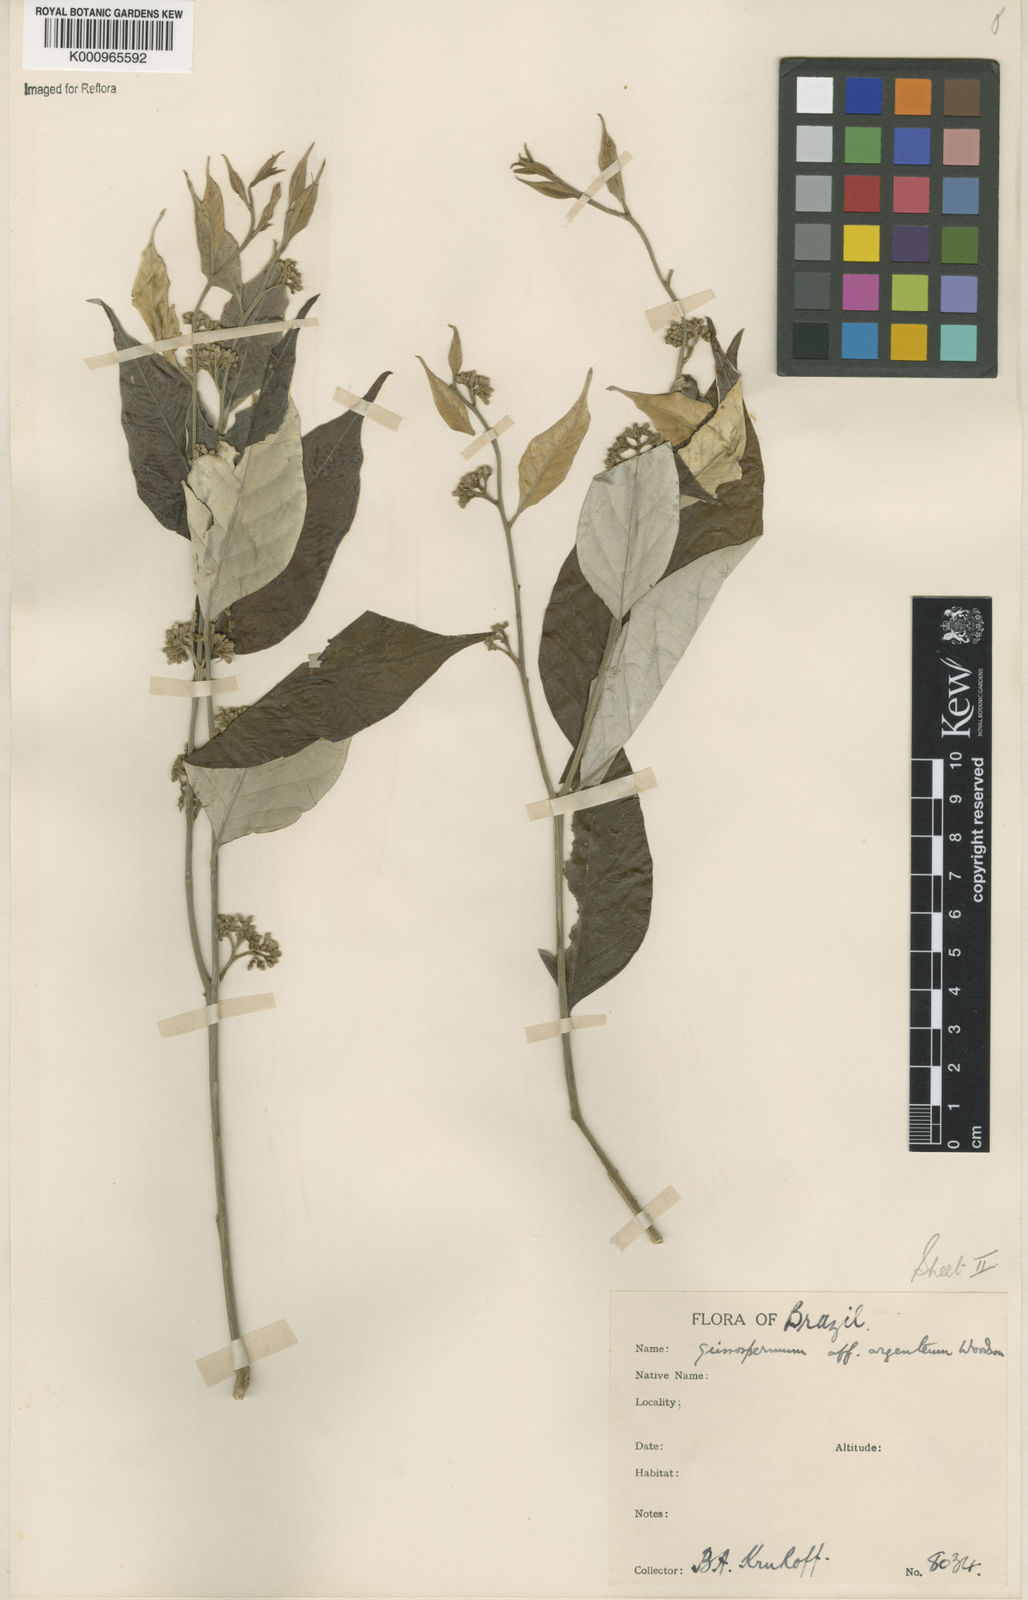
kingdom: Plantae
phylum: Tracheophyta
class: Magnoliopsida
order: Gentianales
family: Apocynaceae
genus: Geissospermum
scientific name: Geissospermum argenteum
